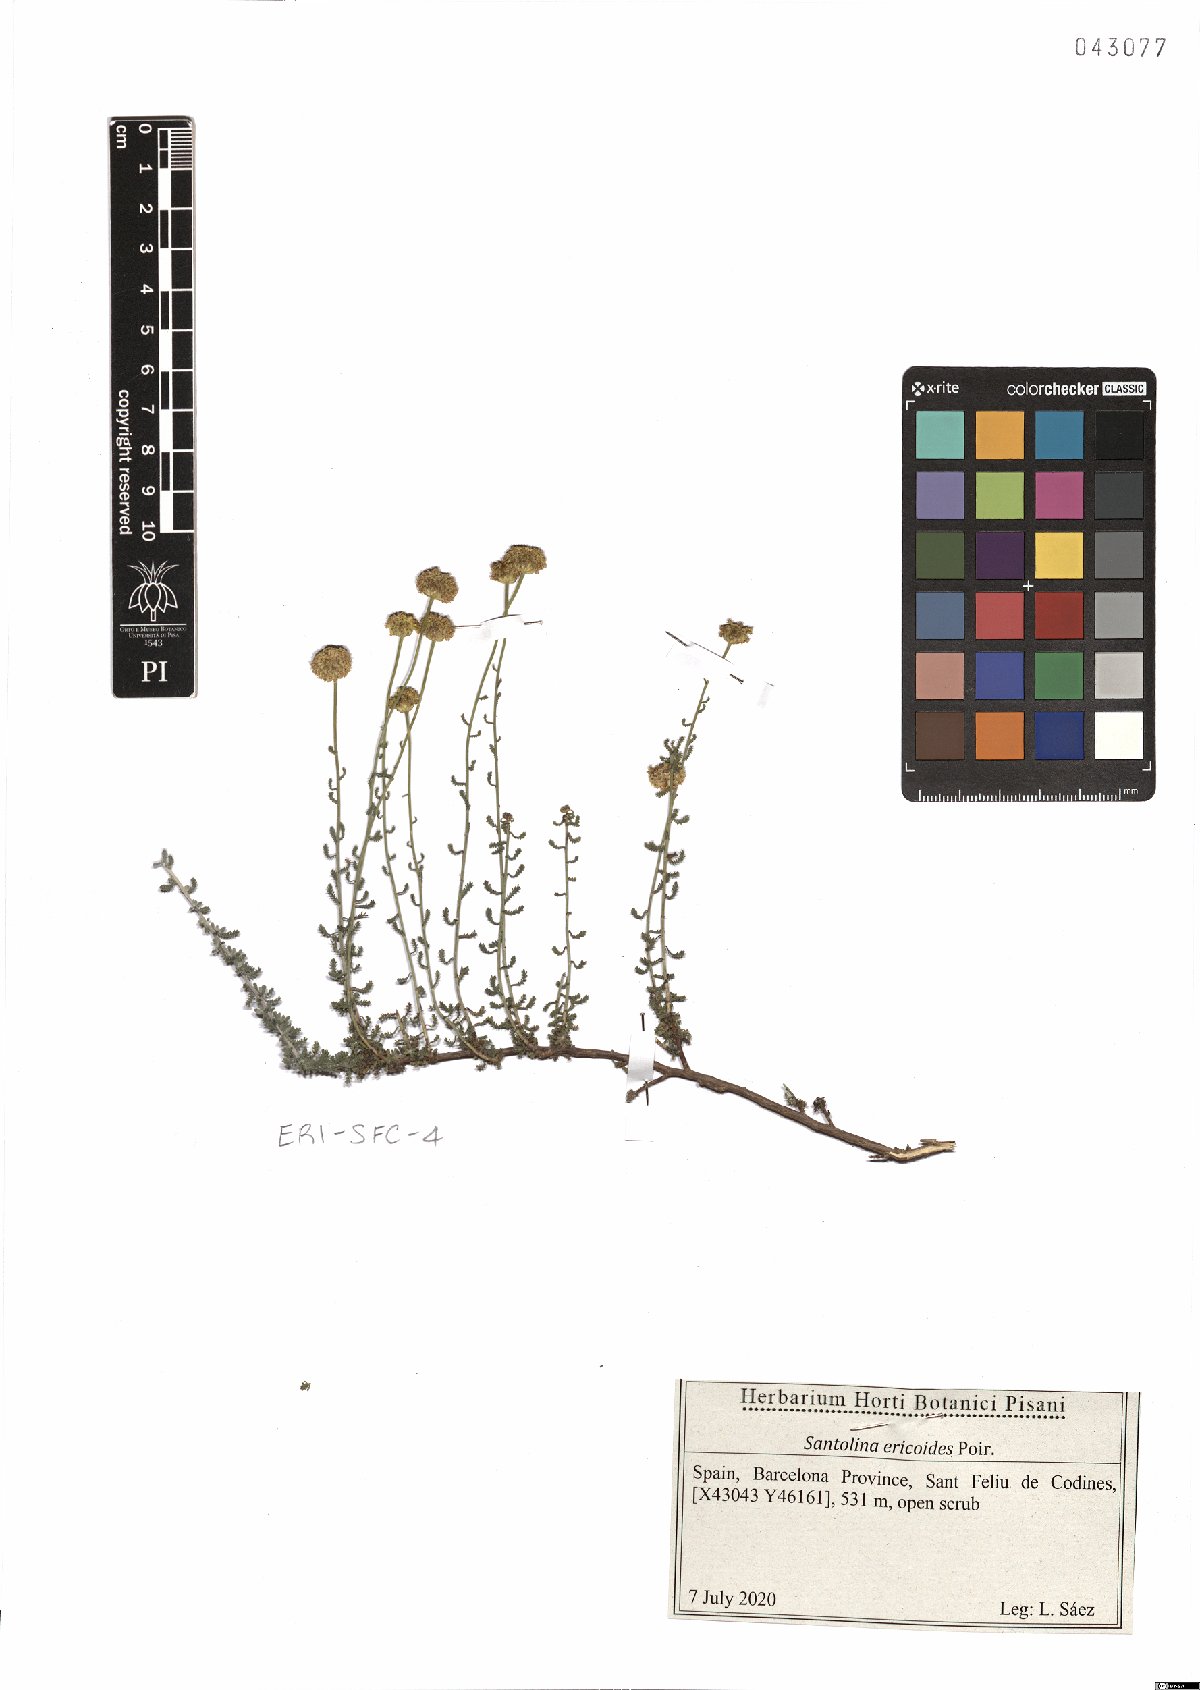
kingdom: Plantae
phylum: Tracheophyta
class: Magnoliopsida
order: Asterales
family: Asteraceae
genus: Santolina
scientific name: Santolina ericoides
